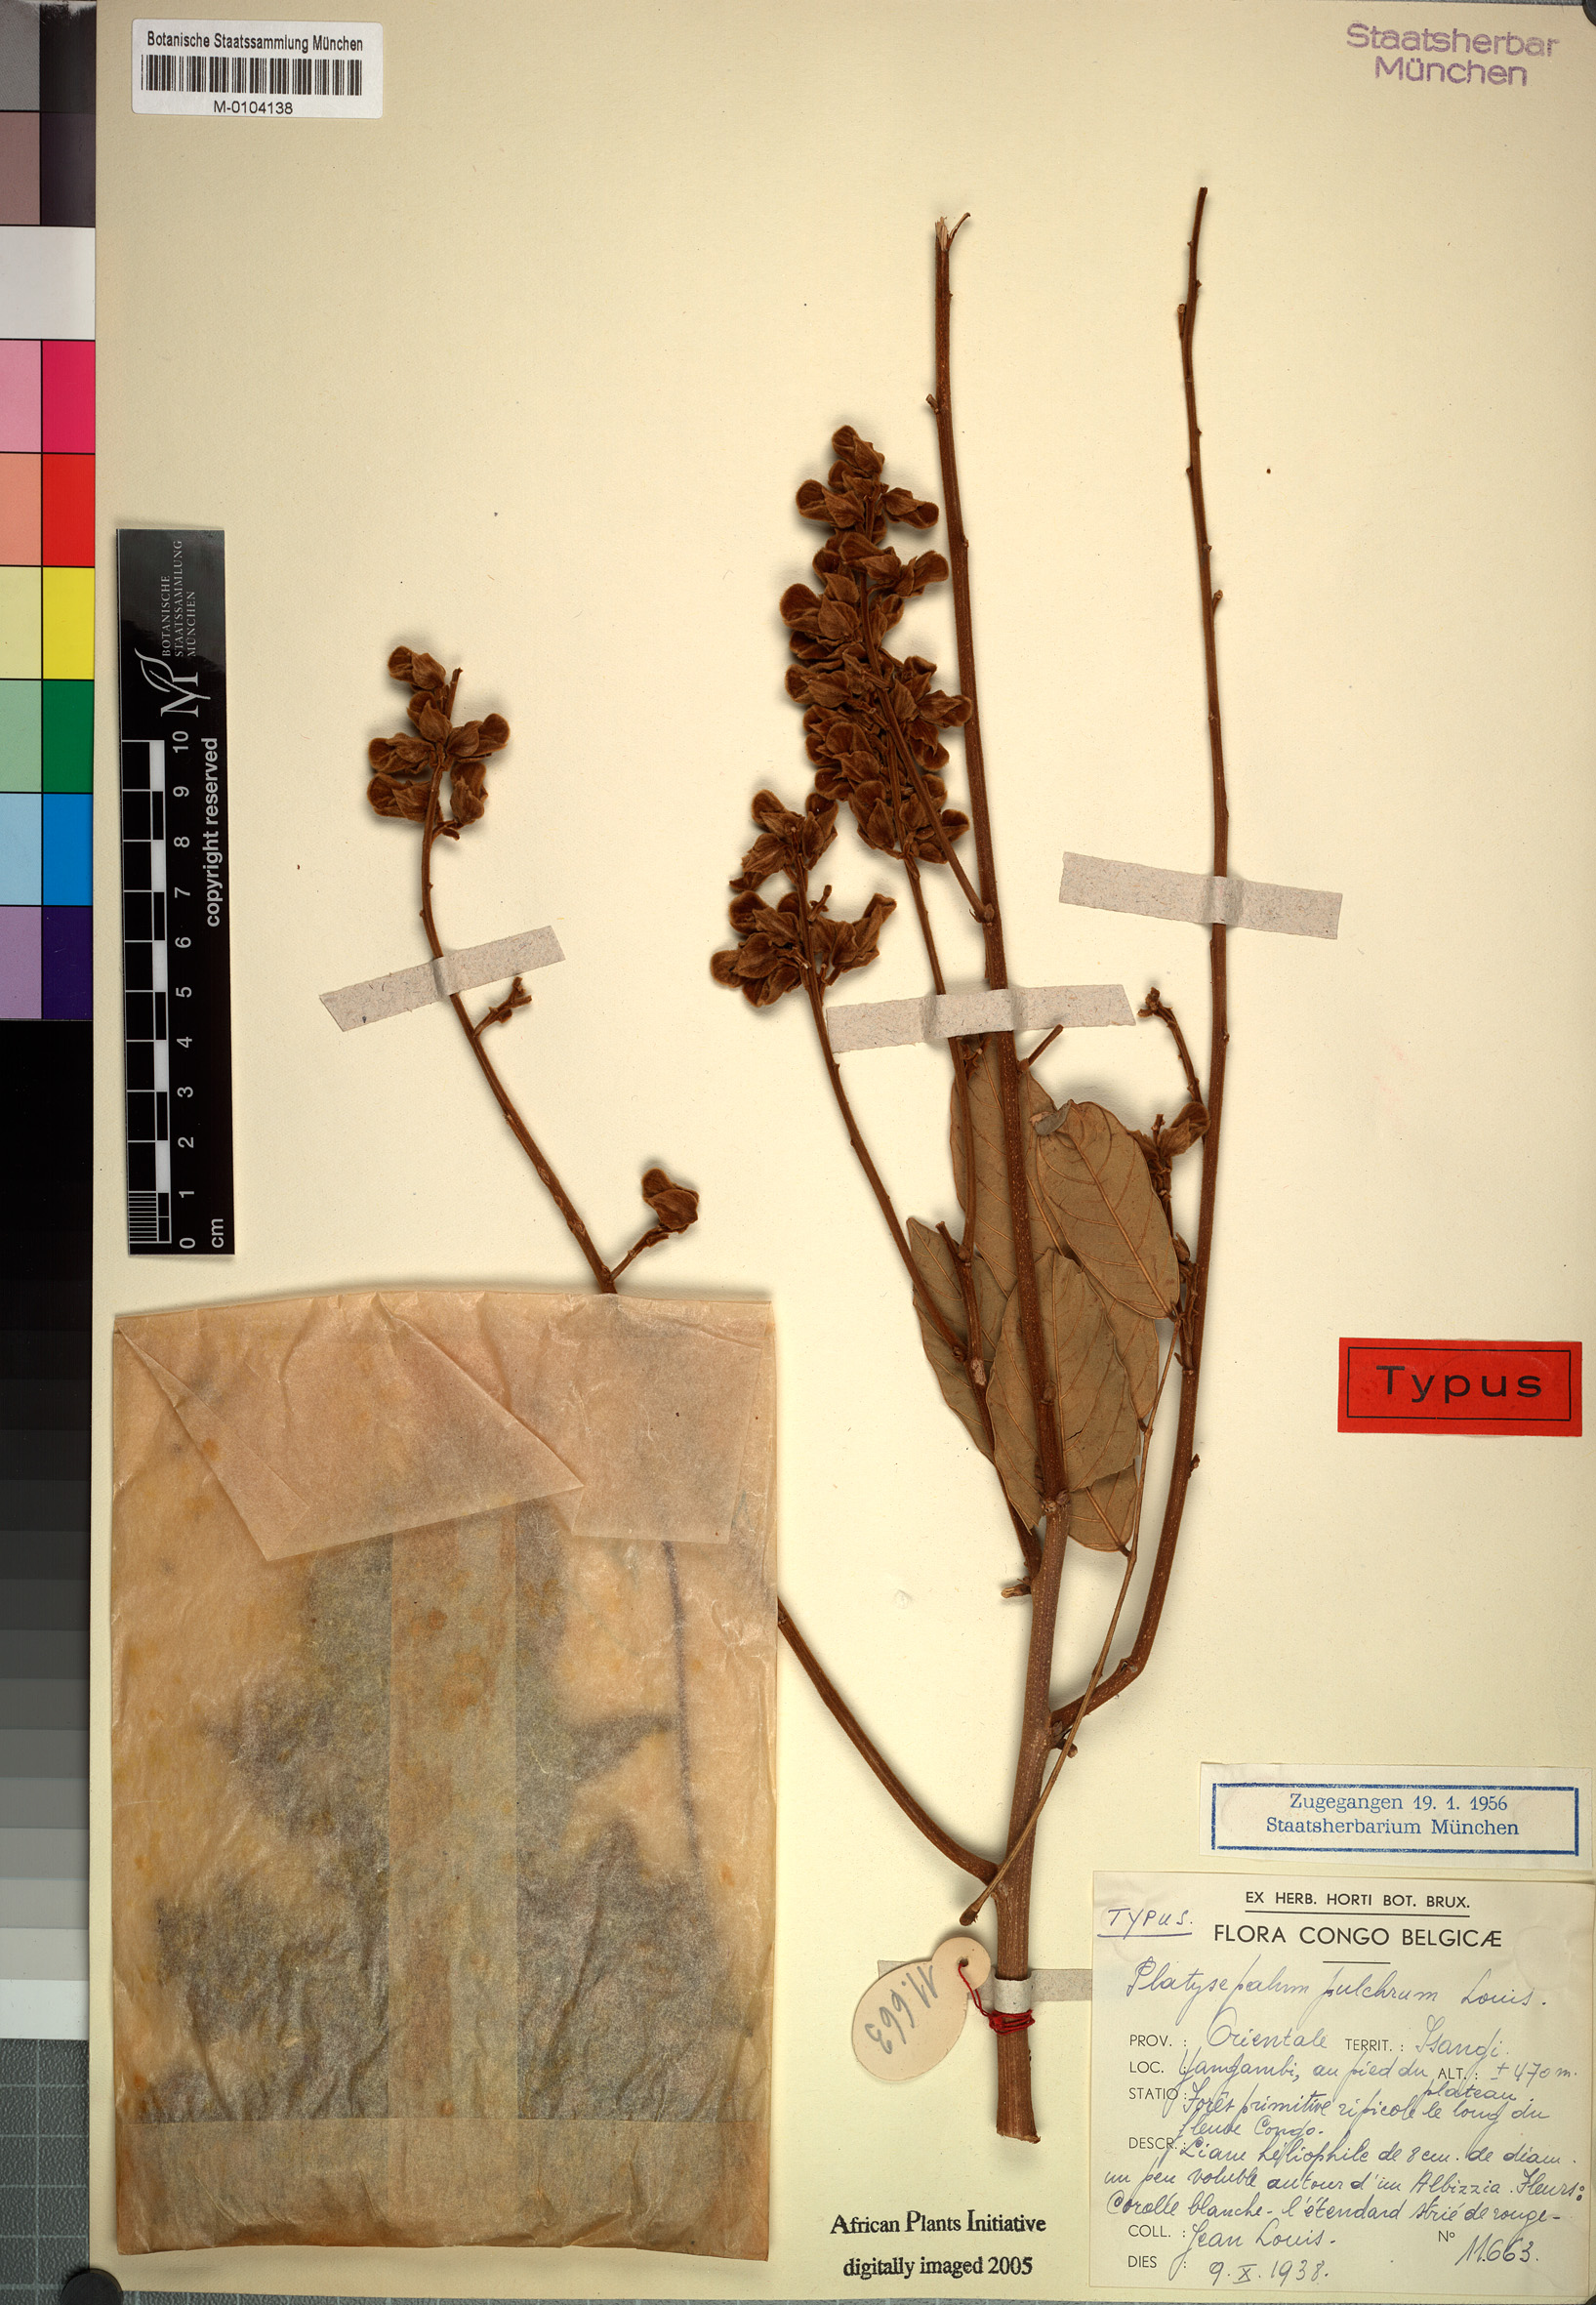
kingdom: Plantae
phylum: Tracheophyta
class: Magnoliopsida
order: Fabales
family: Fabaceae
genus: Platysepalum
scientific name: Platysepalum pulchrum
